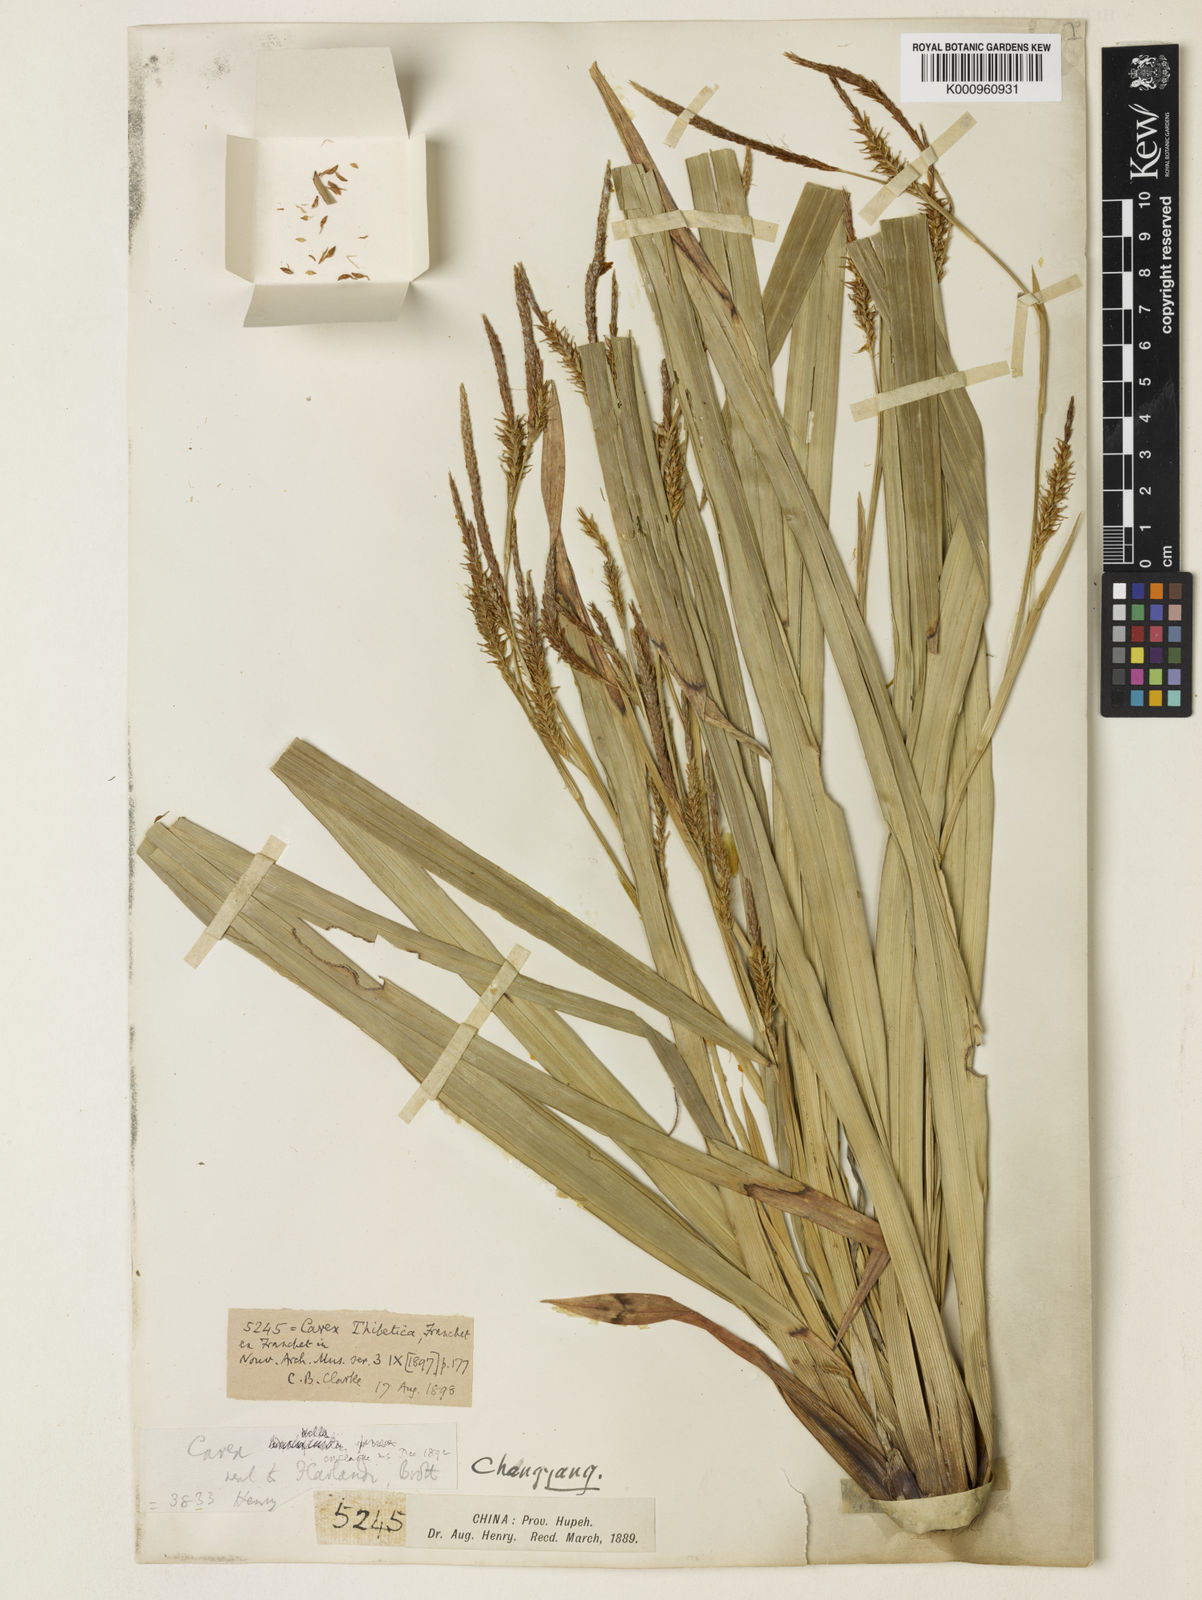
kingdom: Plantae
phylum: Tracheophyta
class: Liliopsida
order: Poales
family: Cyperaceae
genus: Carex
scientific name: Carex thibetica
